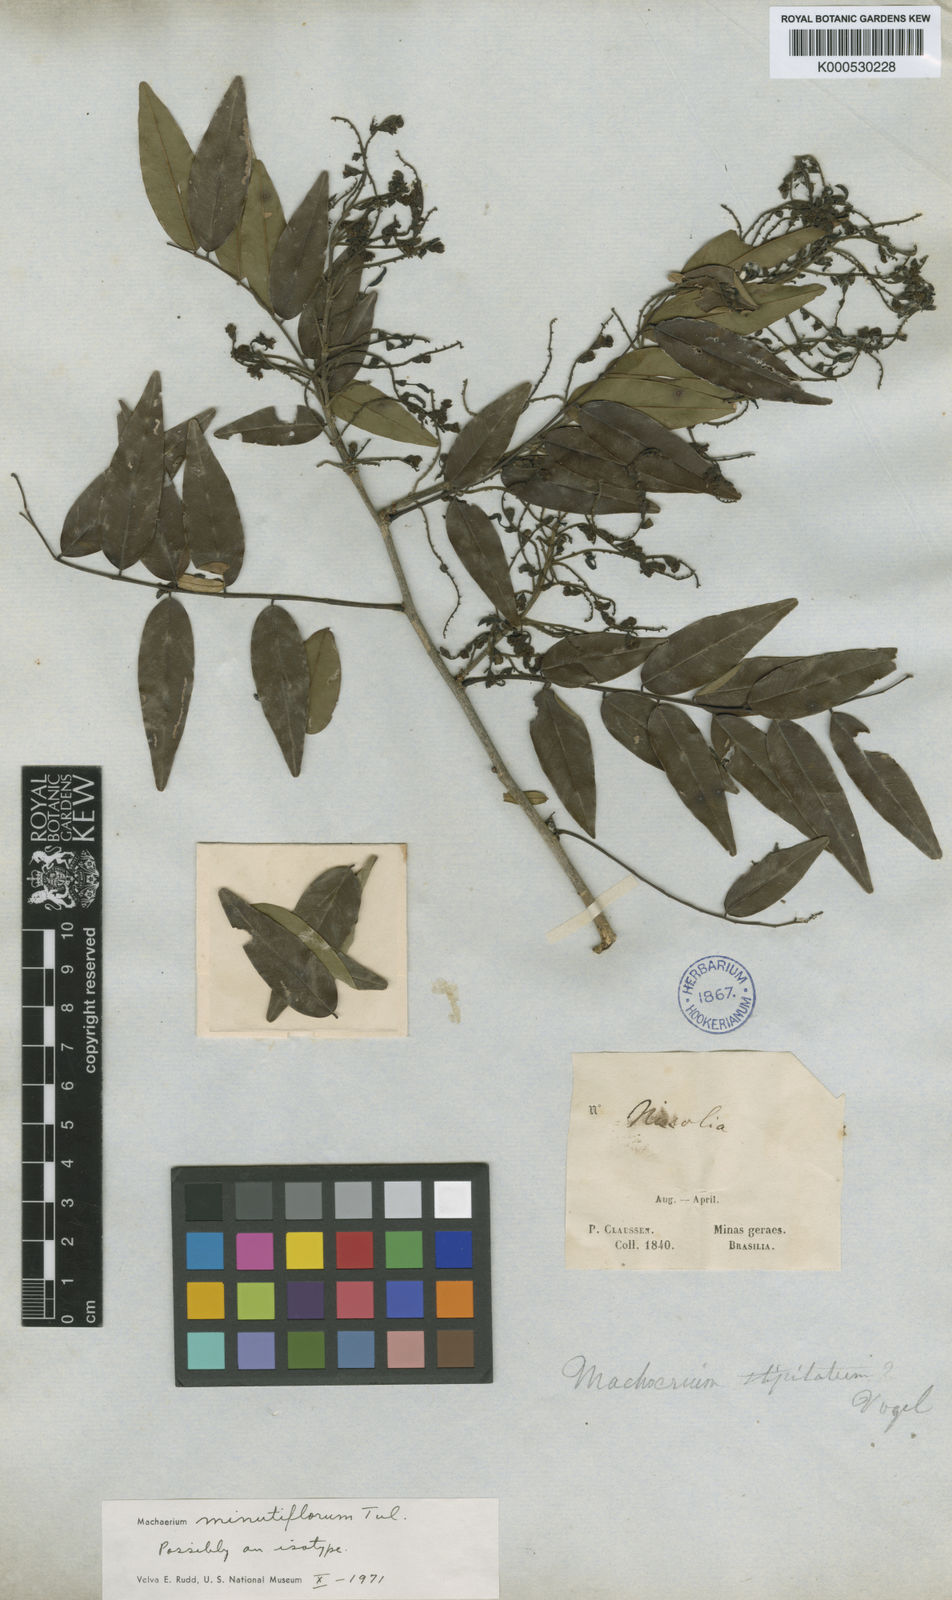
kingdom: Plantae
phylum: Tracheophyta
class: Magnoliopsida
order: Fabales
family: Fabaceae
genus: Machaerium
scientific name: Machaerium stipitatum
